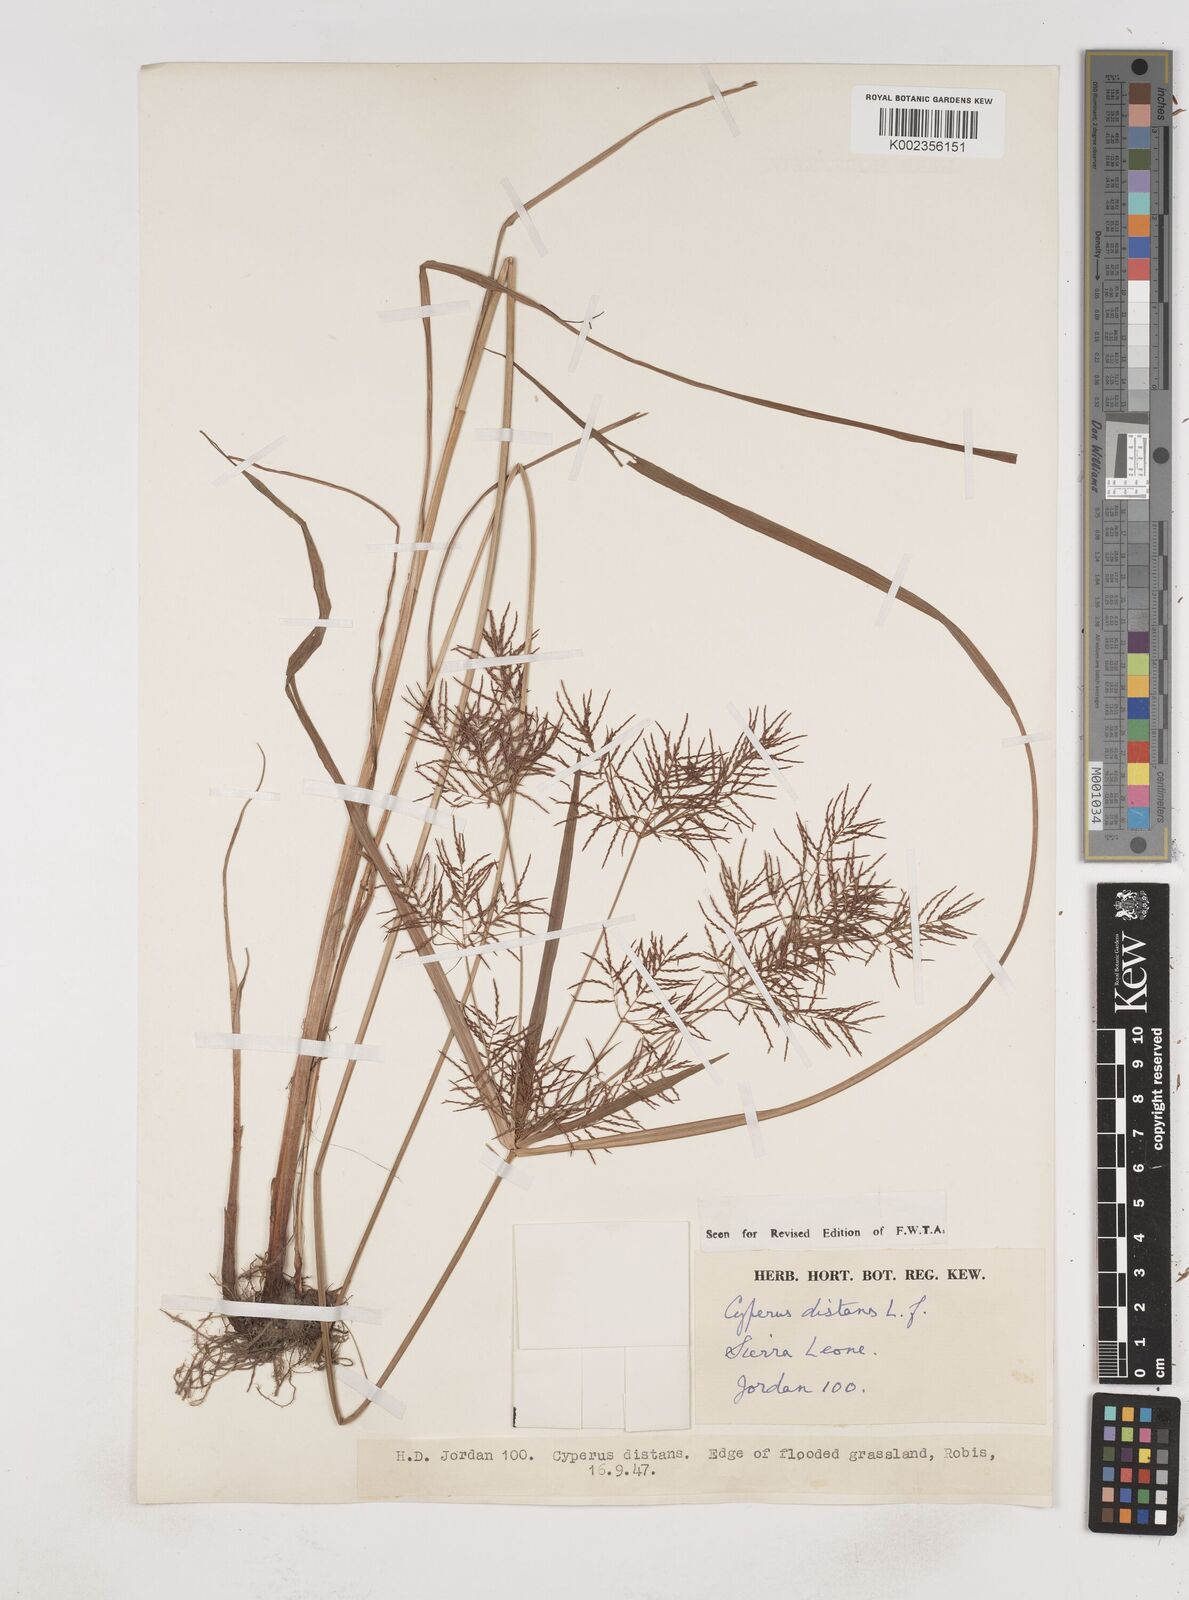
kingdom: Plantae
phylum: Tracheophyta
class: Liliopsida
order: Poales
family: Cyperaceae
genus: Cyperus
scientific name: Cyperus distans
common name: Slender cyperus
